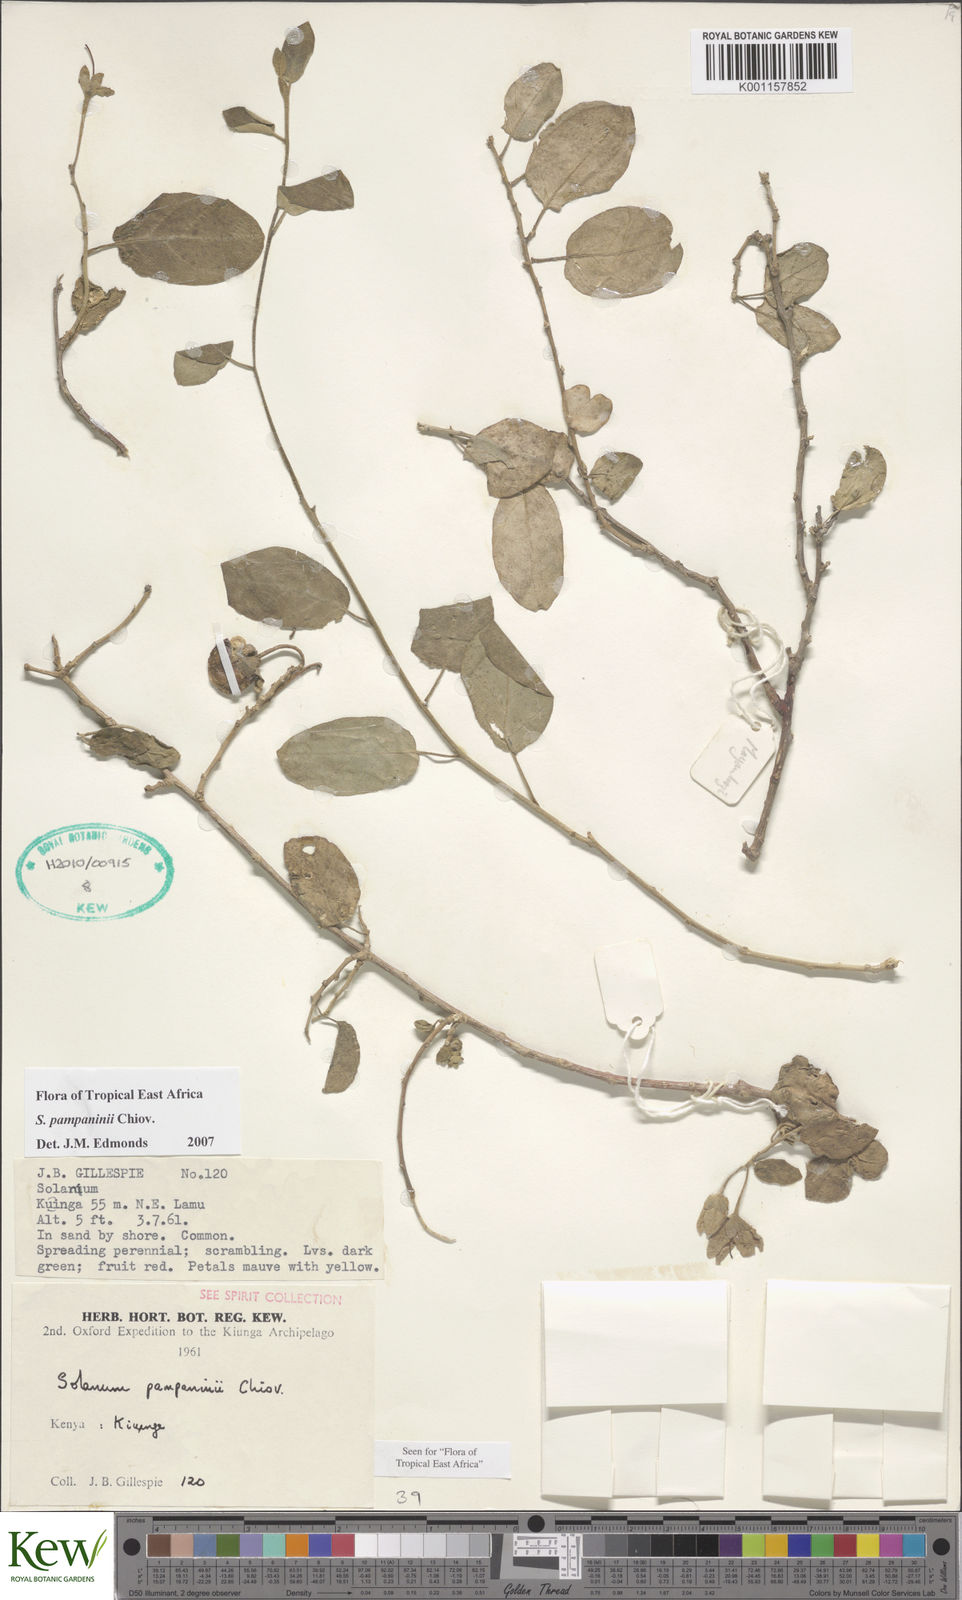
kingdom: Plantae
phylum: Tracheophyta
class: Magnoliopsida
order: Solanales
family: Solanaceae
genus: Solanum
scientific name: Solanum pampaninii
